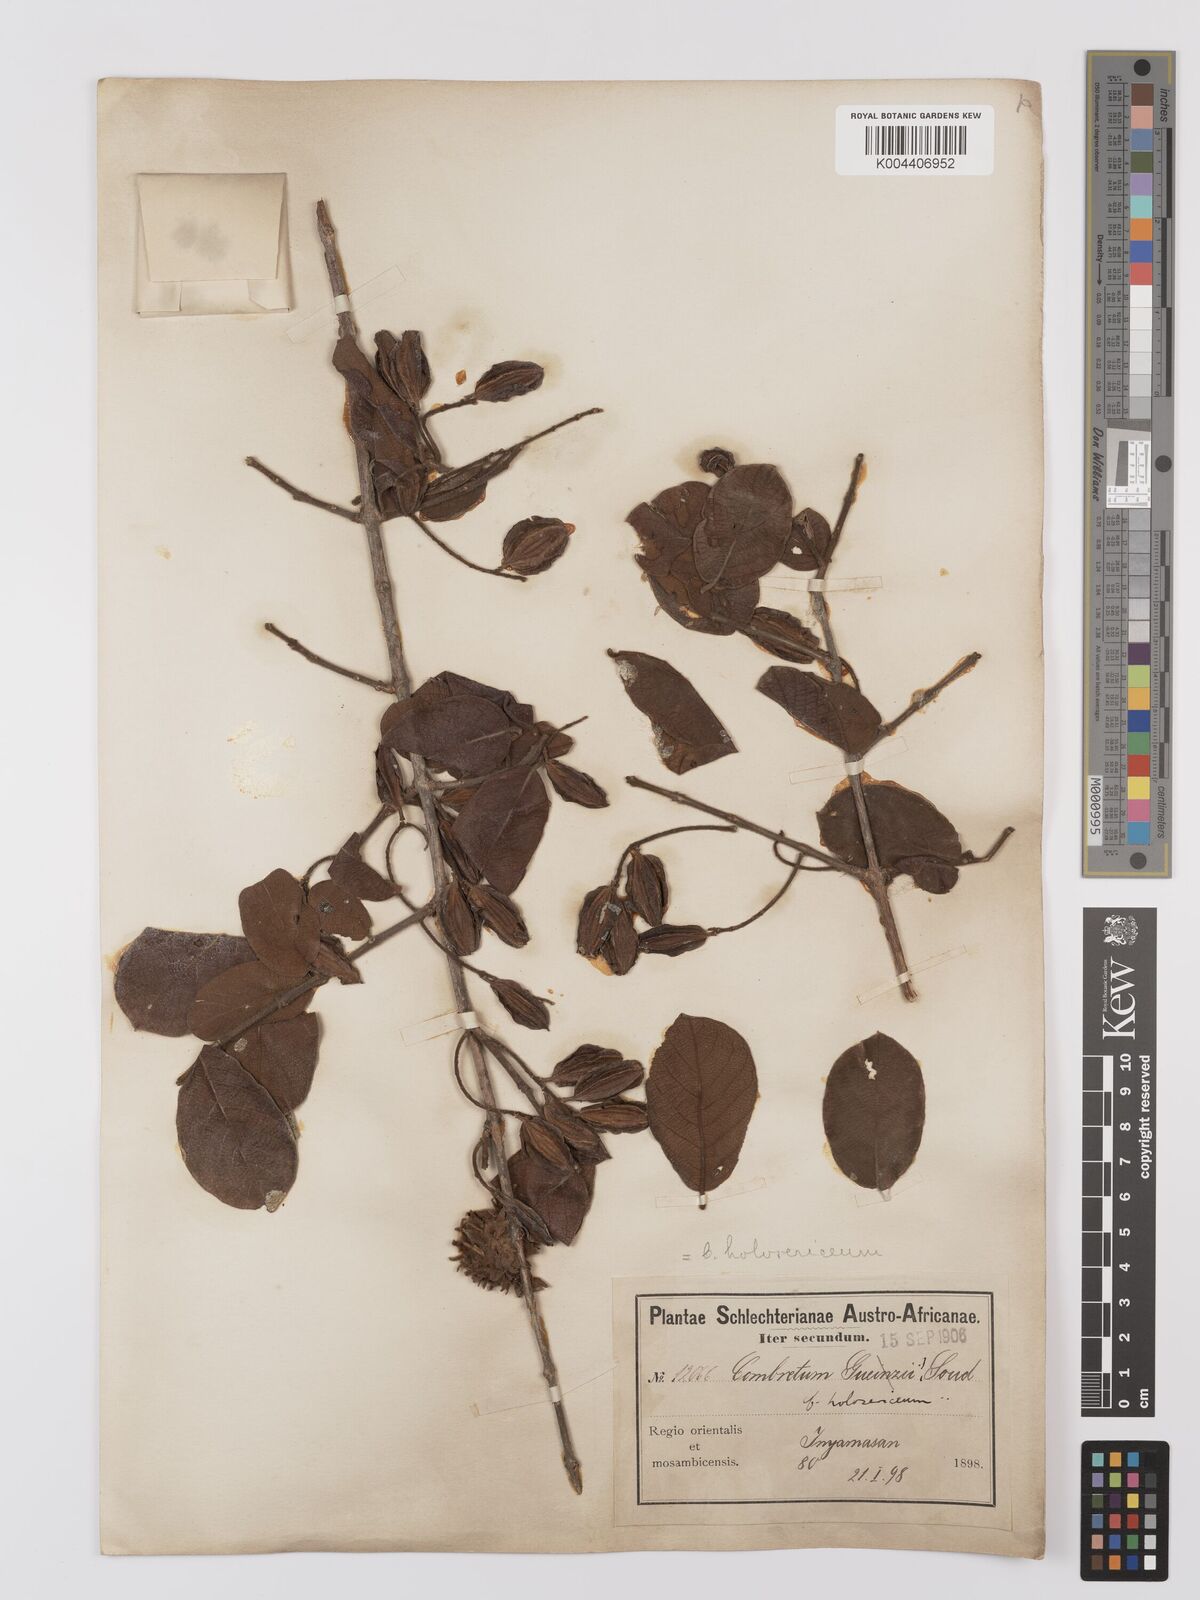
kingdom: Plantae
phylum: Tracheophyta
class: Magnoliopsida
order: Myrtales
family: Combretaceae
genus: Combretum
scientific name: Combretum
